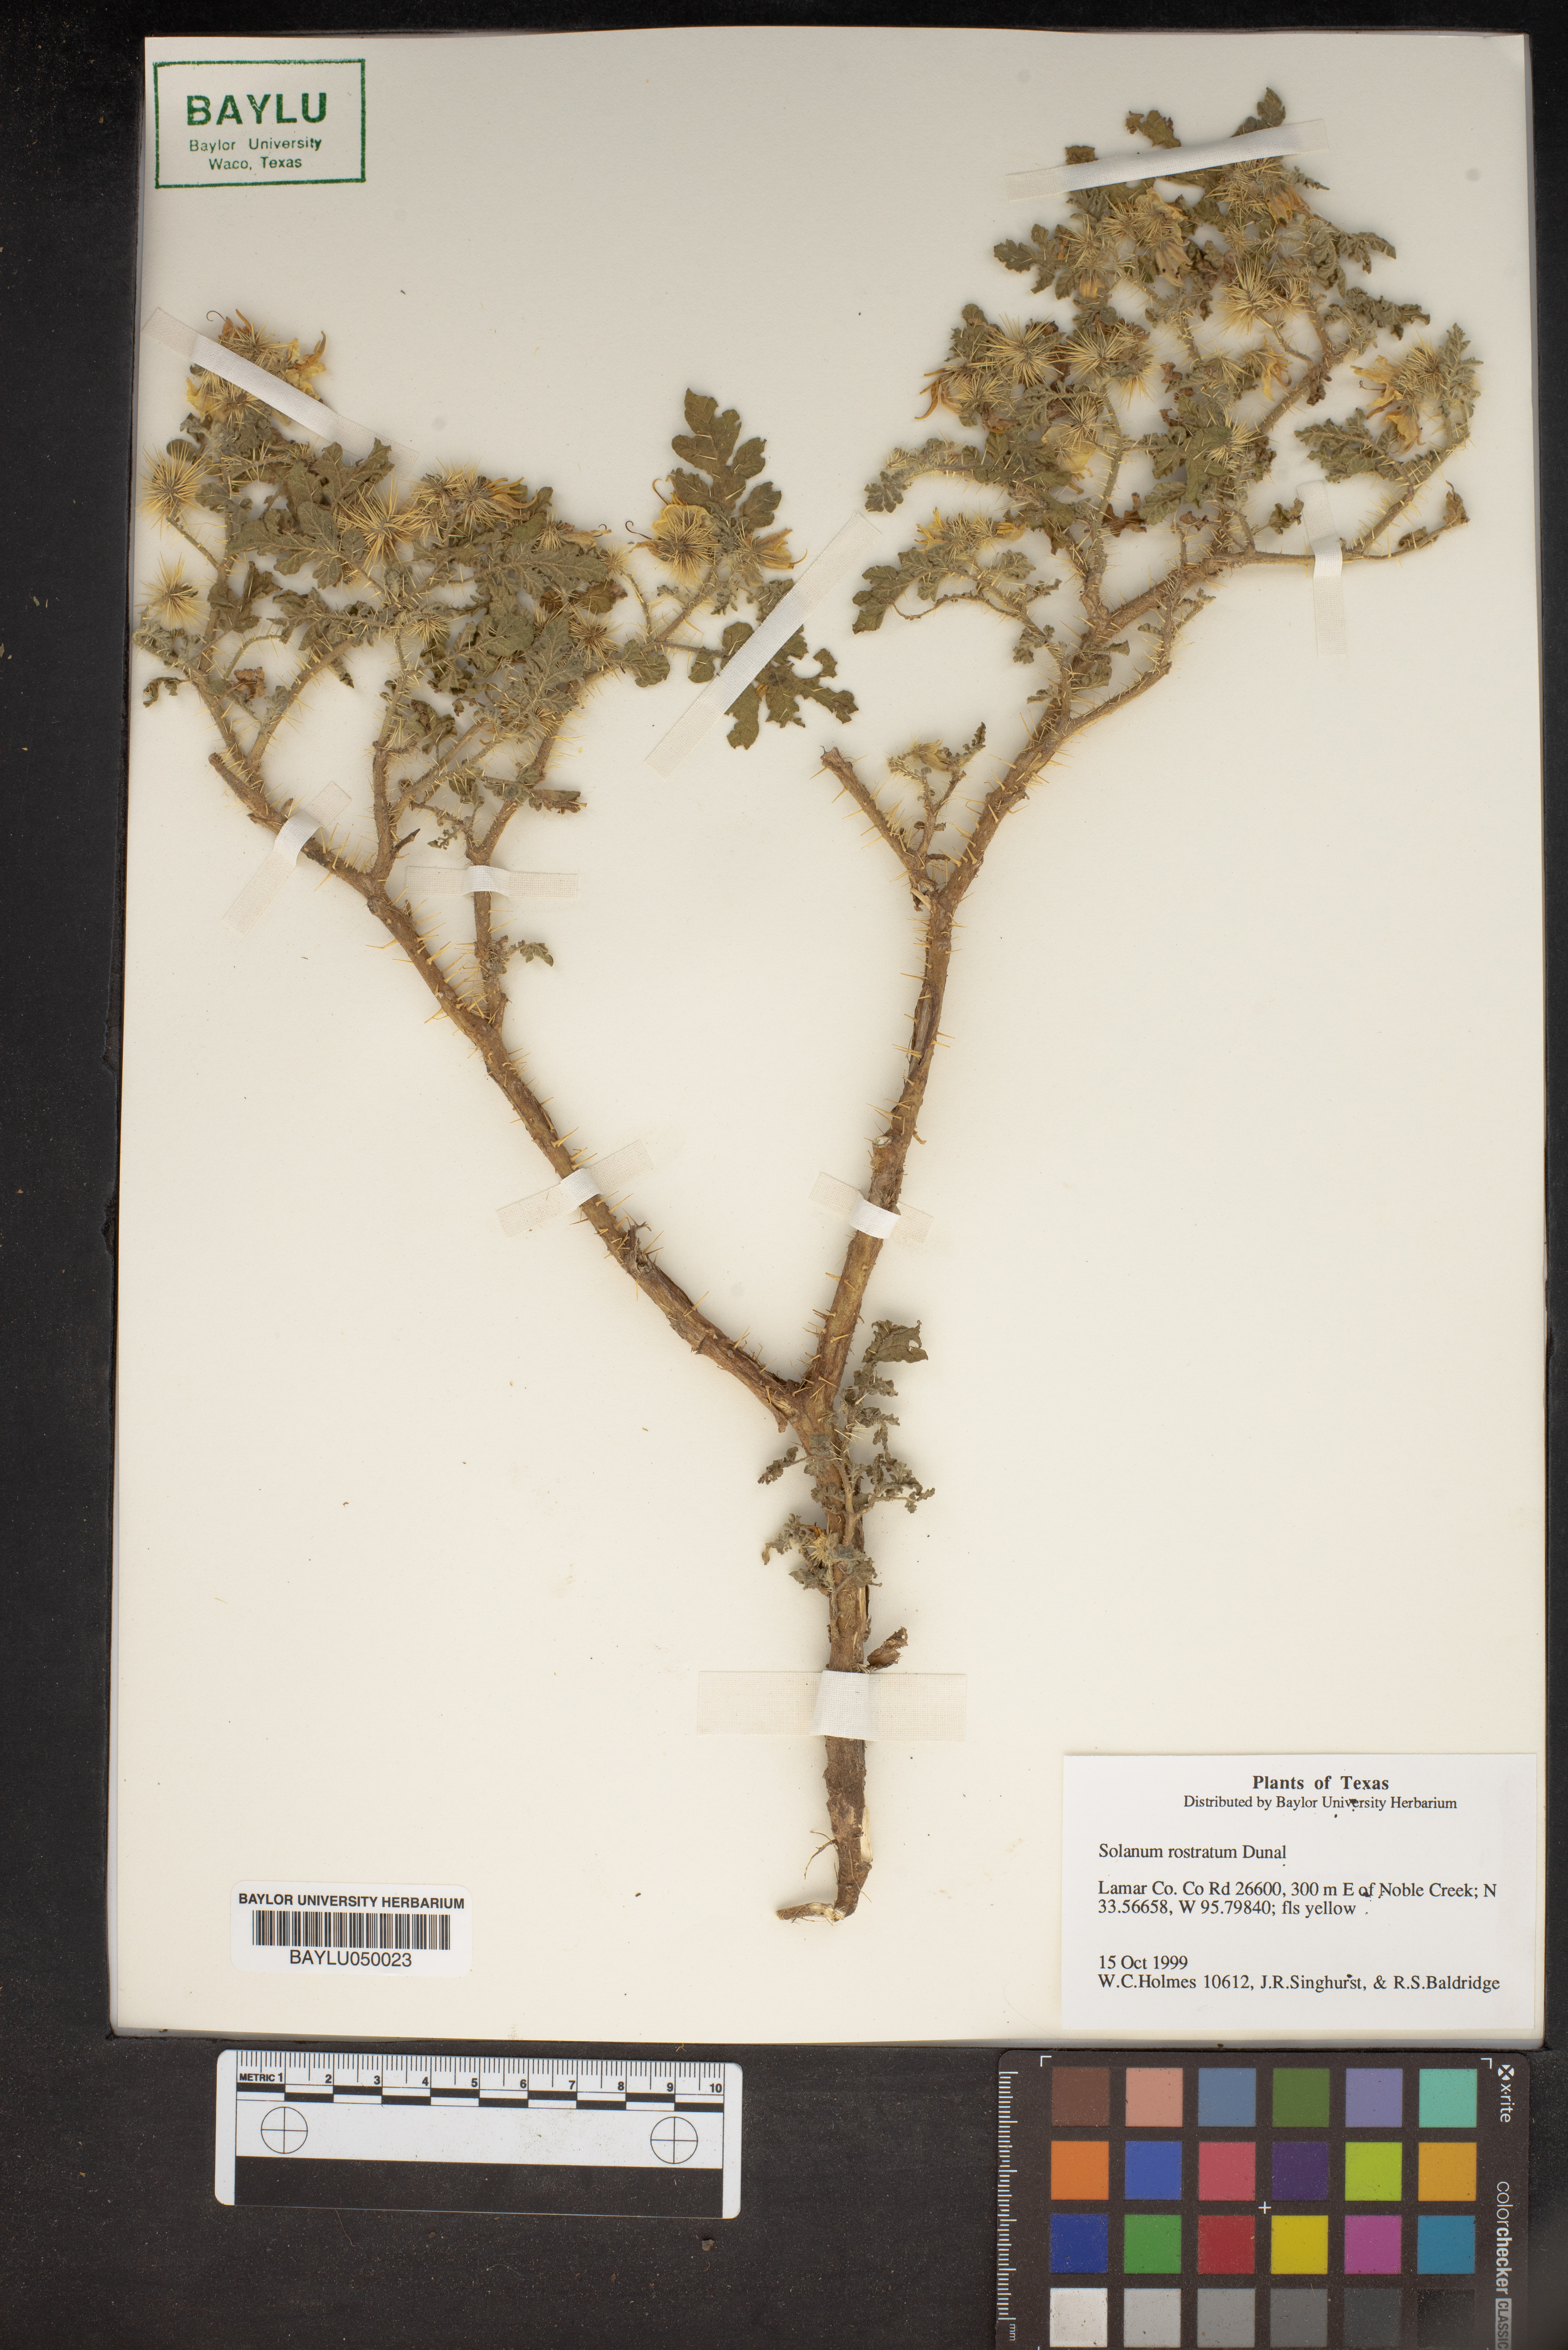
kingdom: Plantae
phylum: Tracheophyta
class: Magnoliopsida
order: Solanales
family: Solanaceae
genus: Solanum
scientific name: Solanum angustifolium
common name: Buffalobur nightshade
